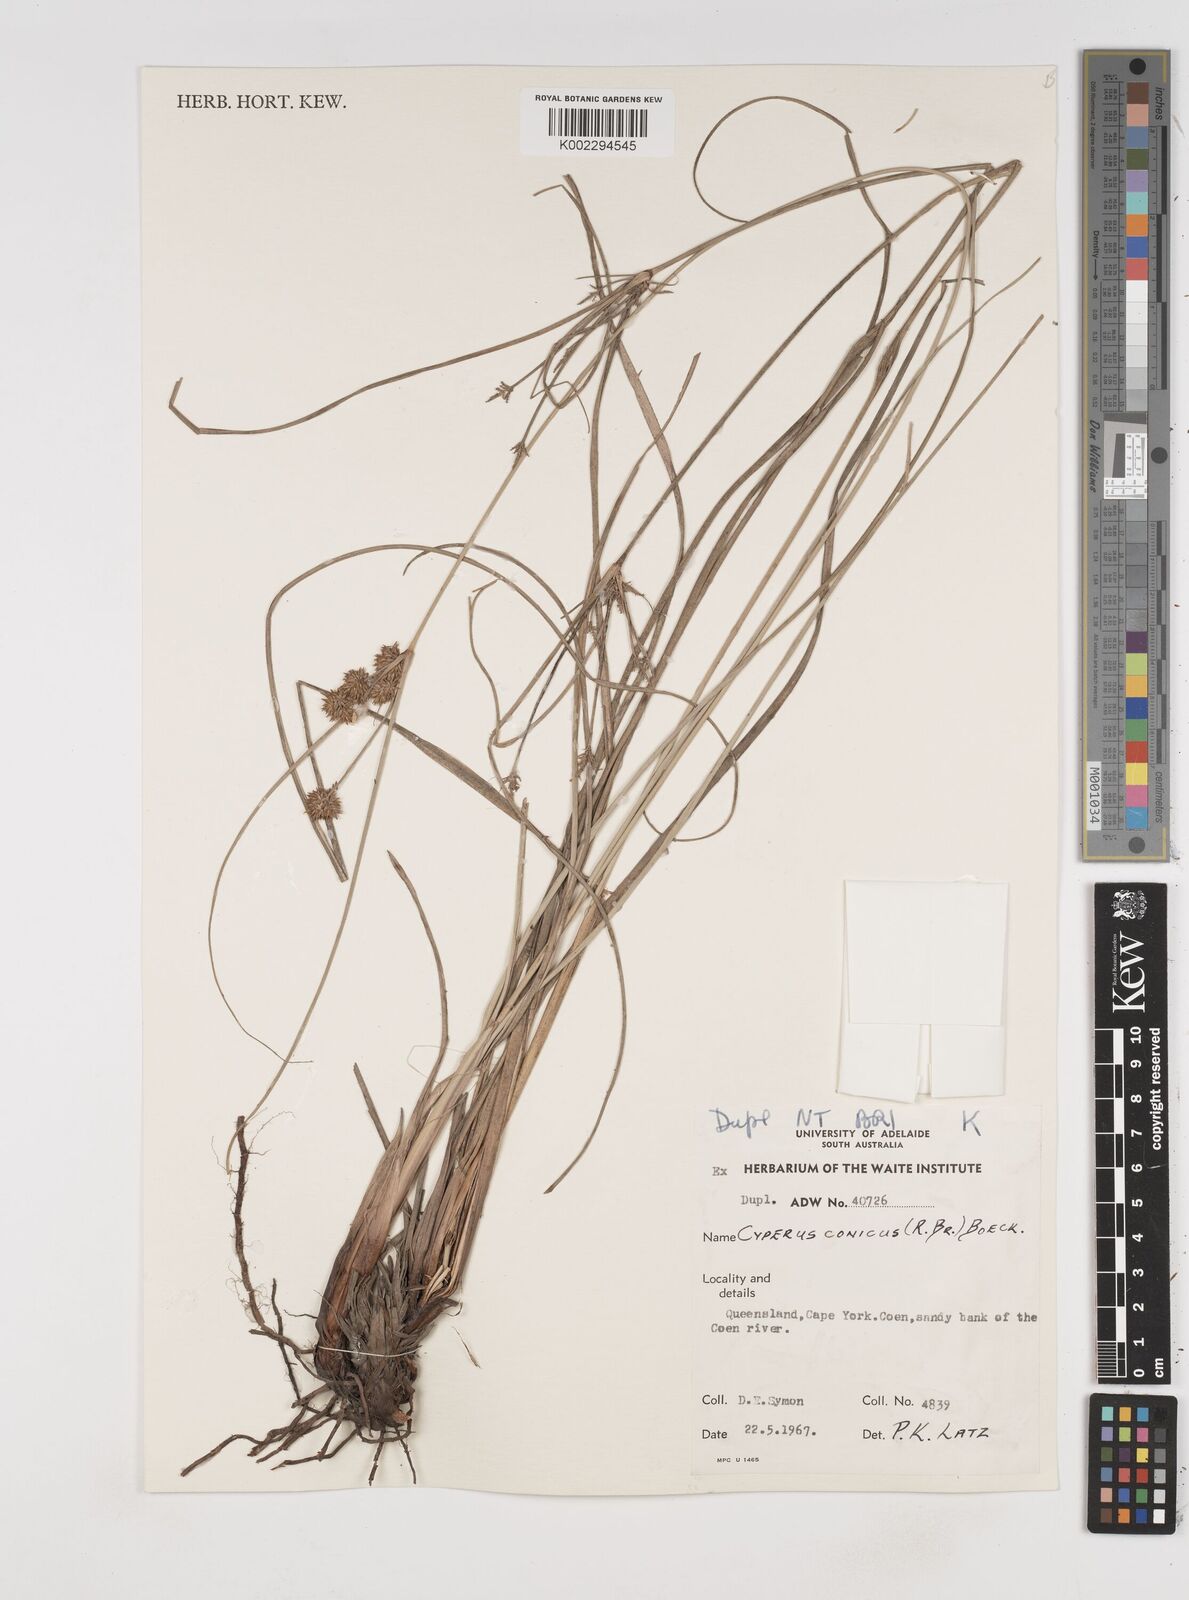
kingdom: Plantae
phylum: Tracheophyta
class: Liliopsida
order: Poales
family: Cyperaceae
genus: Cyperus
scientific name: Cyperus conicus
